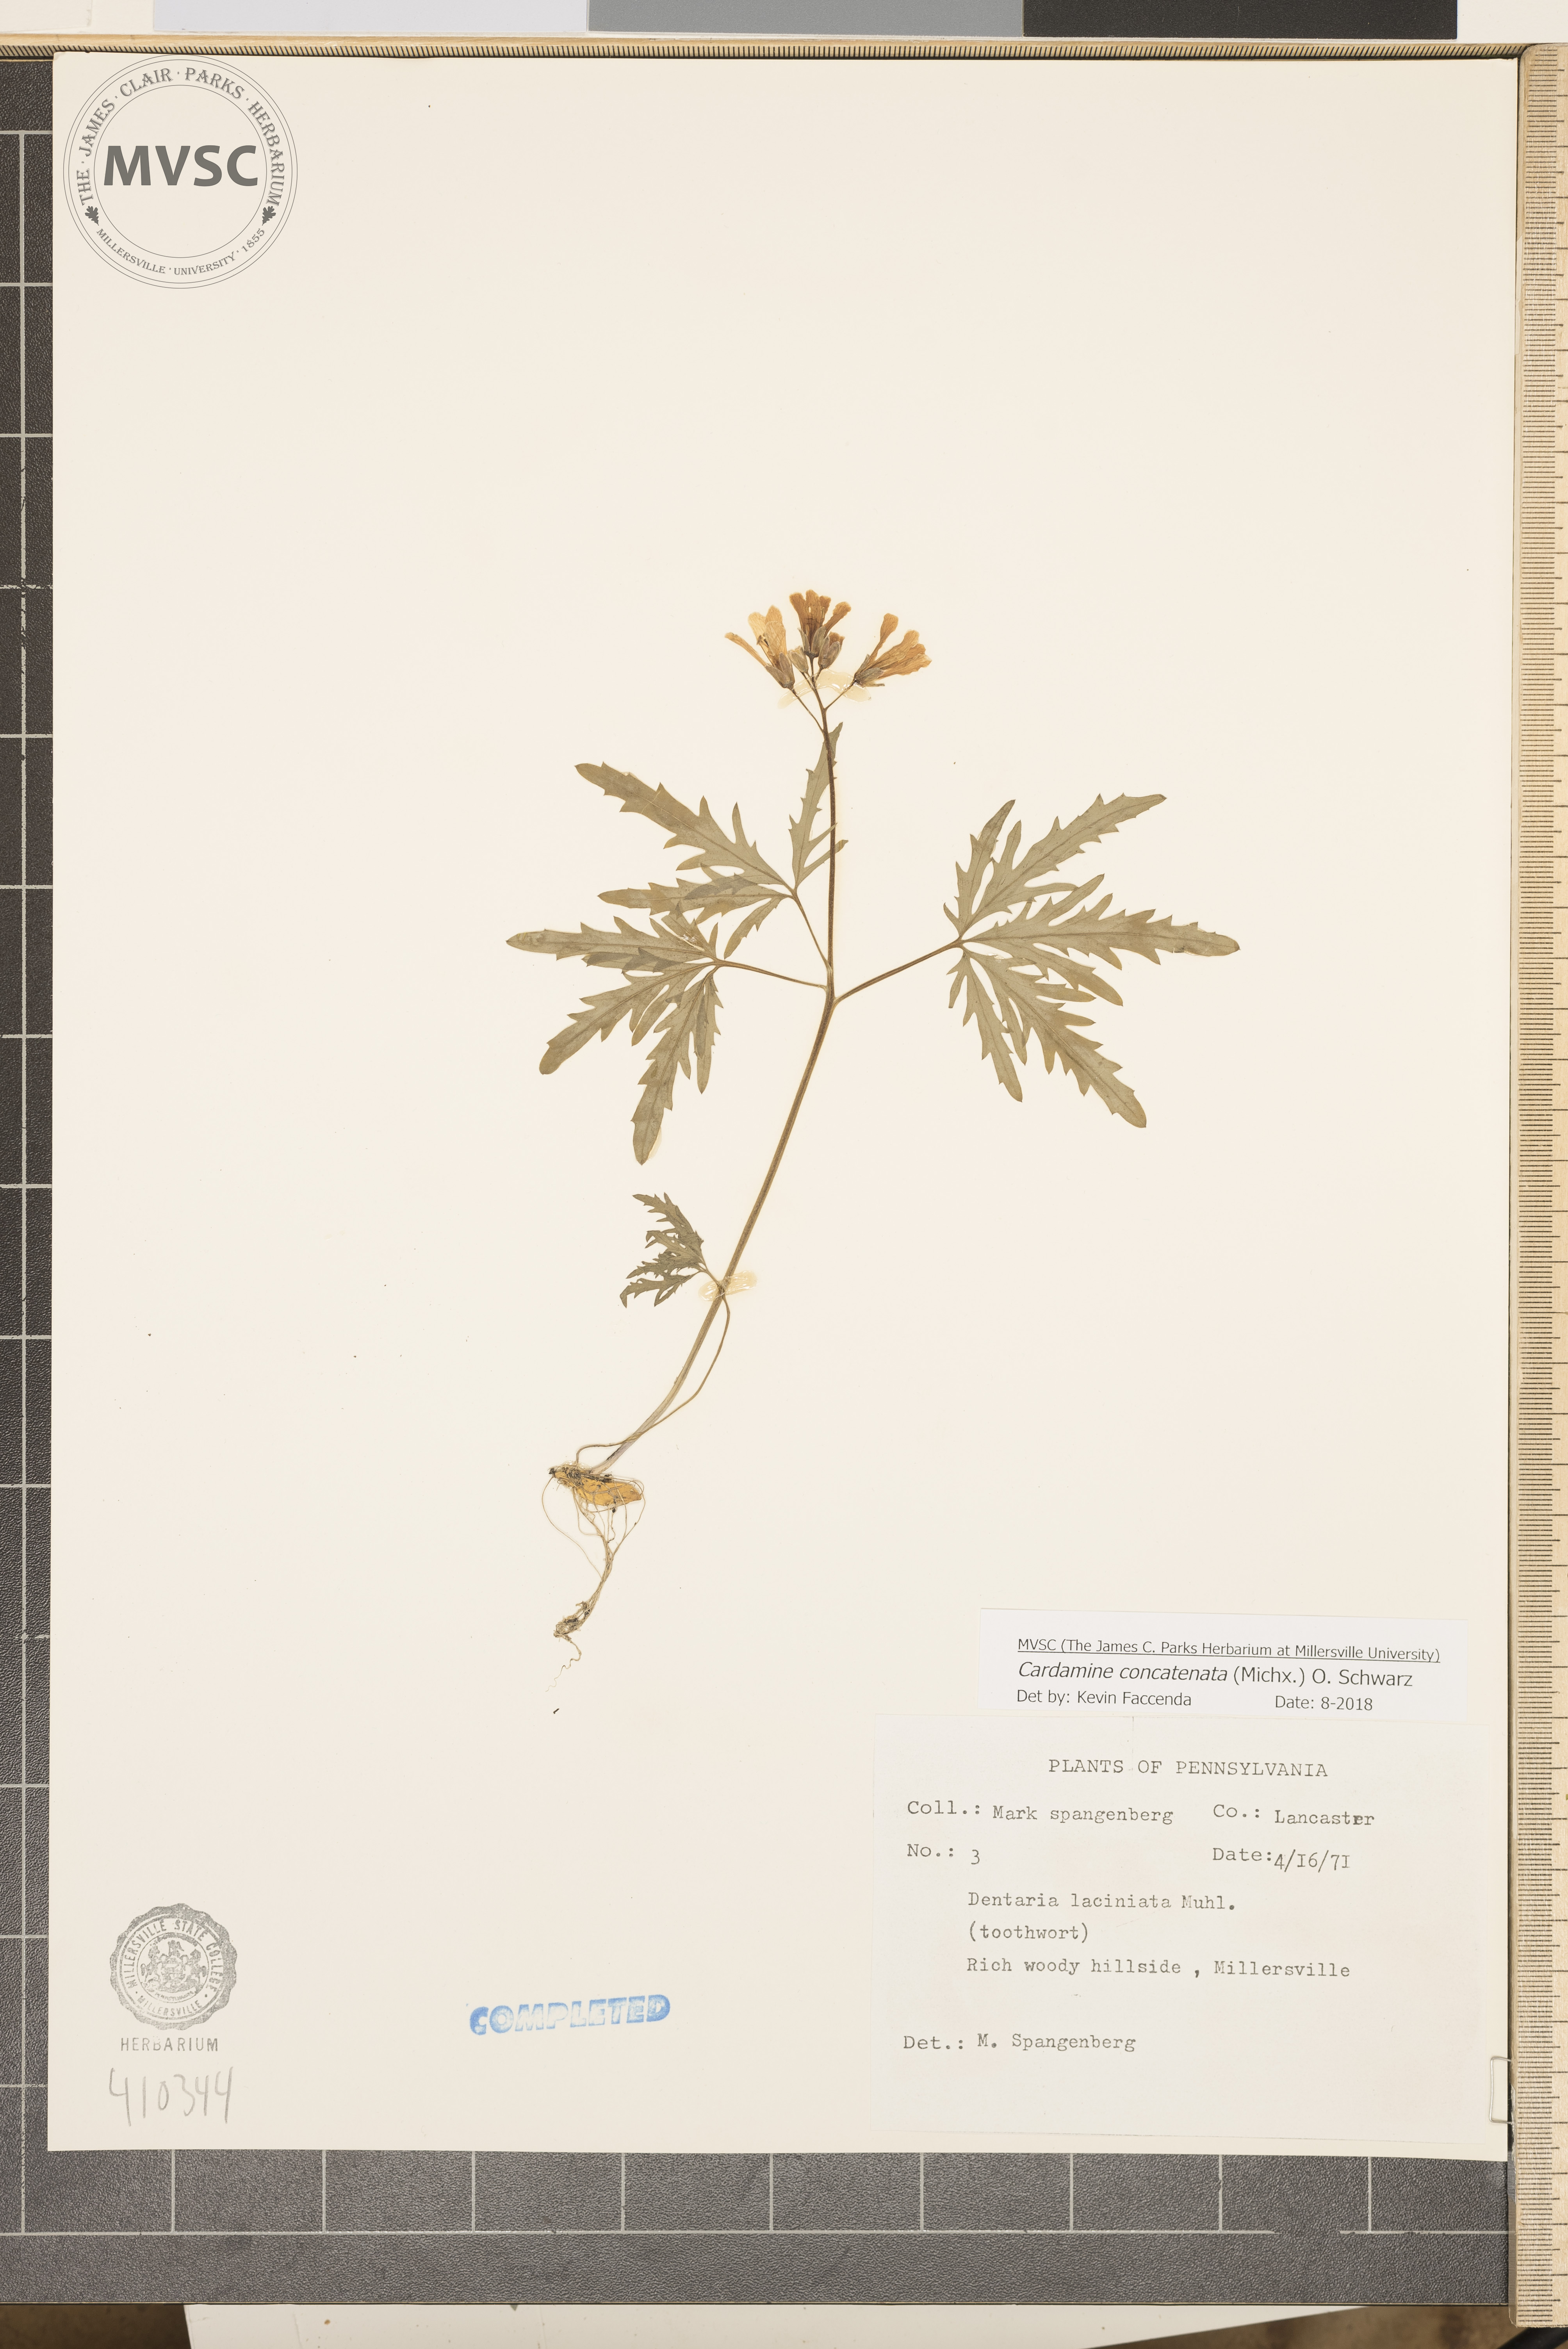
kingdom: Plantae
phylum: Tracheophyta
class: Magnoliopsida
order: Brassicales
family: Brassicaceae
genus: Cardamine
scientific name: Cardamine concatenata
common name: Cut-leaf toothcup
